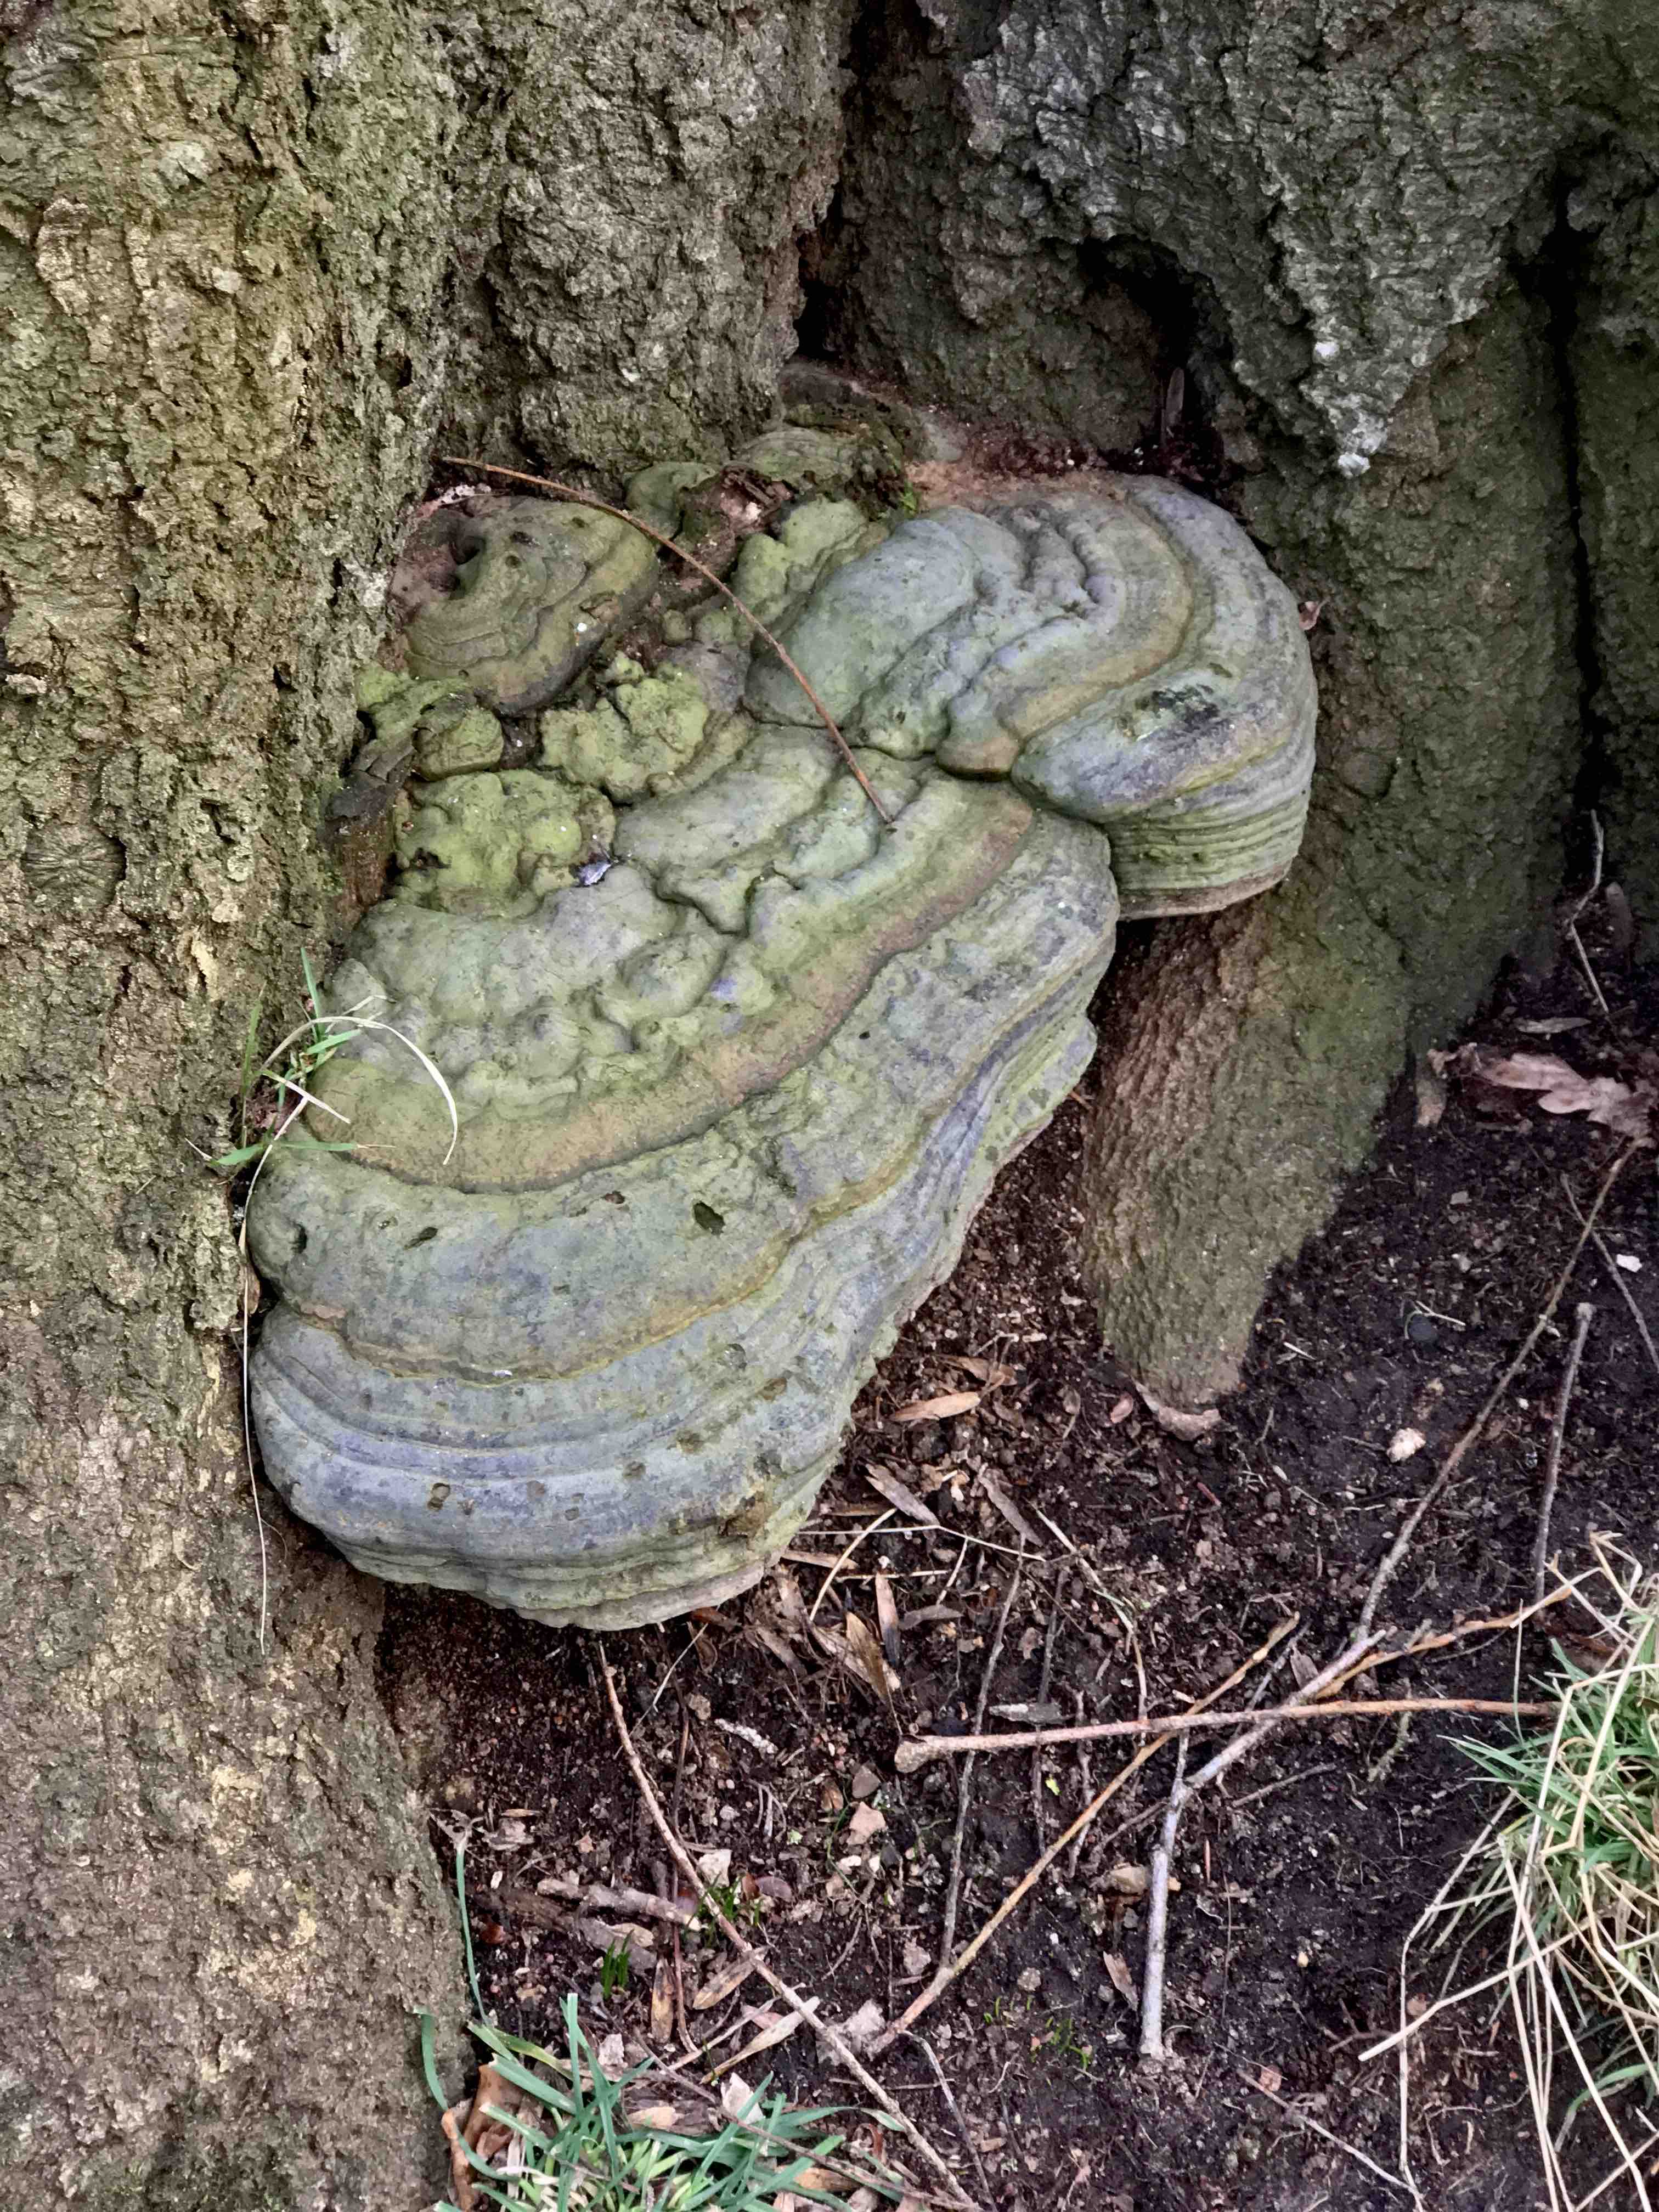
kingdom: Fungi
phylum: Basidiomycota
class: Agaricomycetes
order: Polyporales
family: Polyporaceae
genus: Ganoderma
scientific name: Ganoderma pfeifferi
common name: kobberrød lakporesvamp
